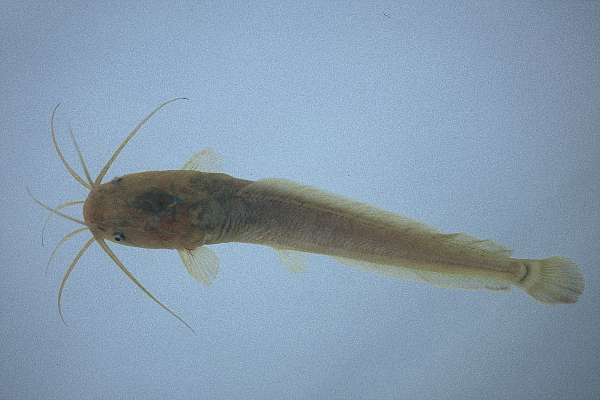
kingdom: Animalia
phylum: Chordata
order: Siluriformes
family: Clariidae
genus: Clarias
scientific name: Clarias gariepinus
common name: African catfish
